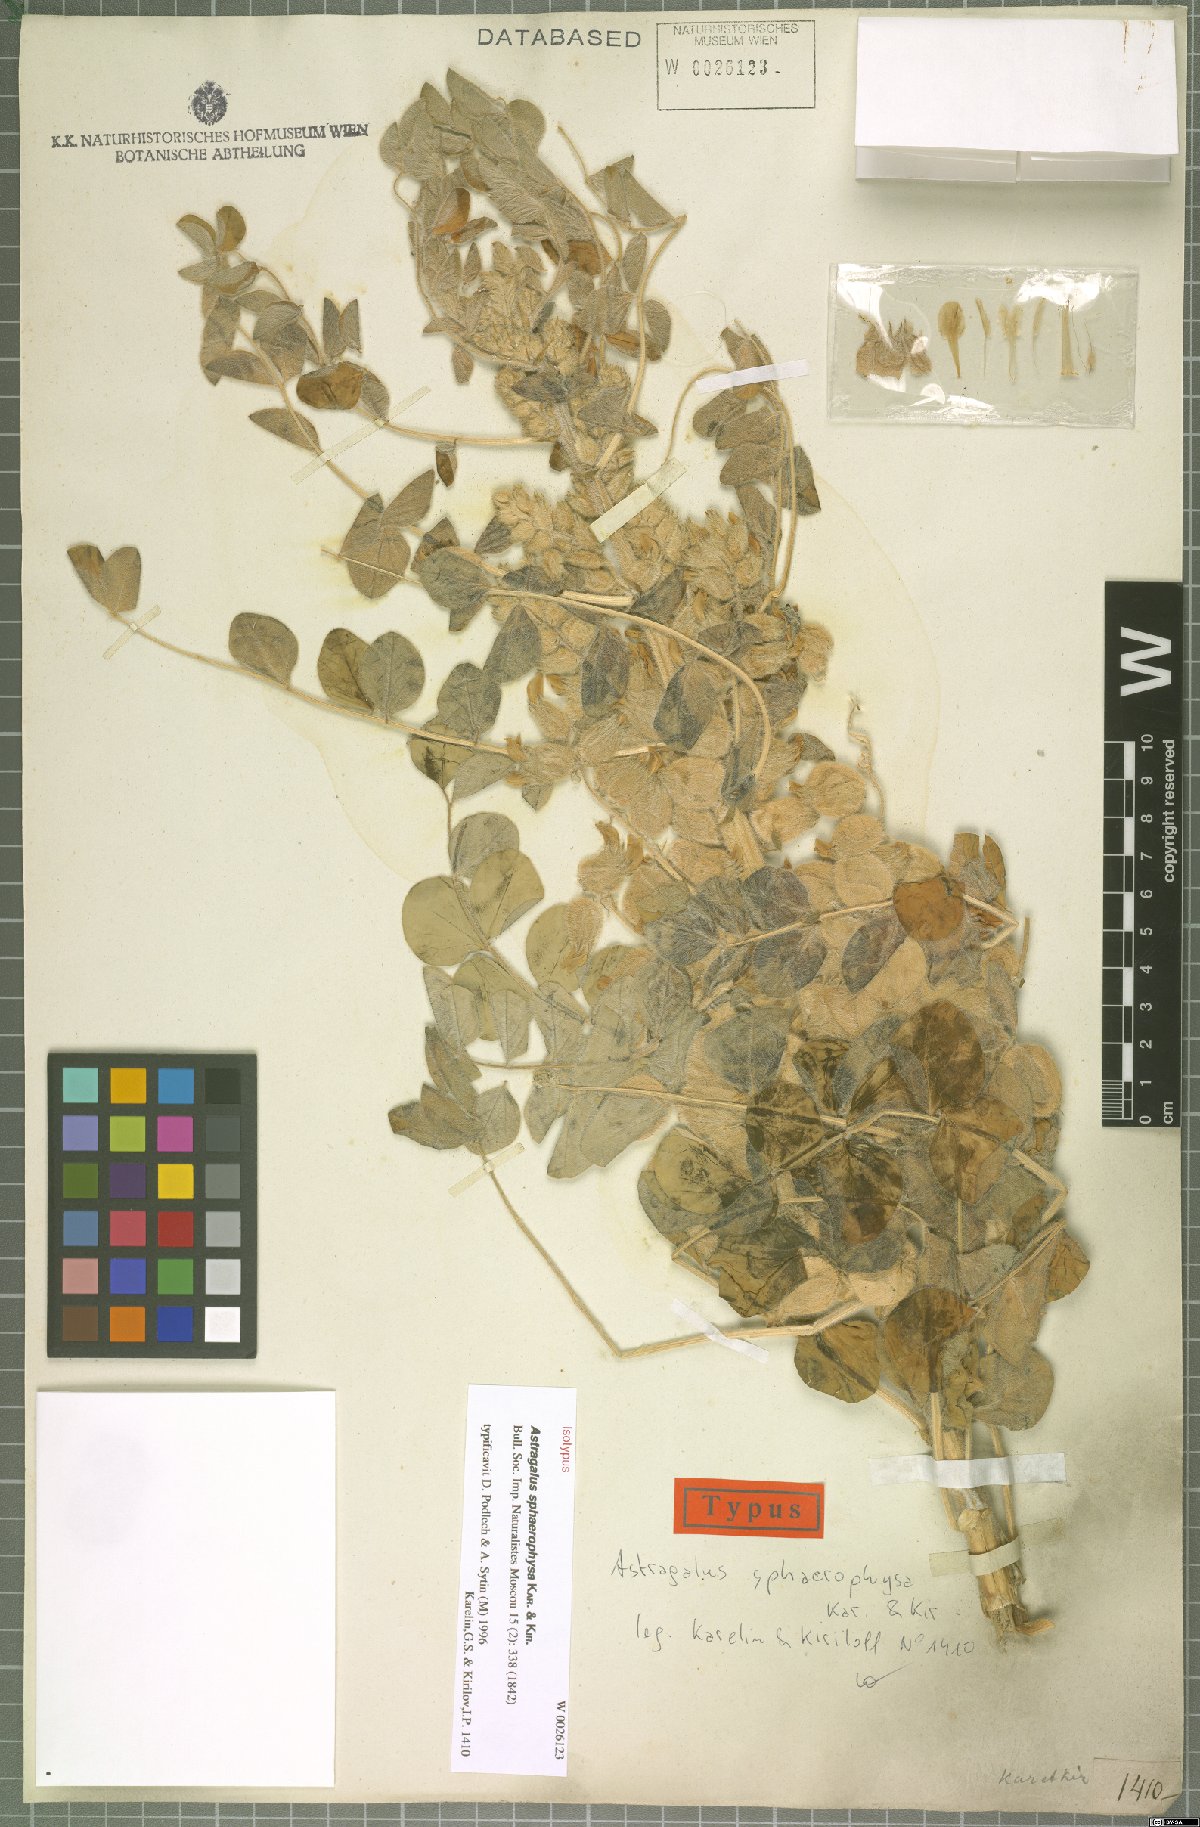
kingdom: Plantae
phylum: Tracheophyta
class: Magnoliopsida
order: Fabales
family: Fabaceae
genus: Astragalus
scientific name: Astragalus sphaerophysa
